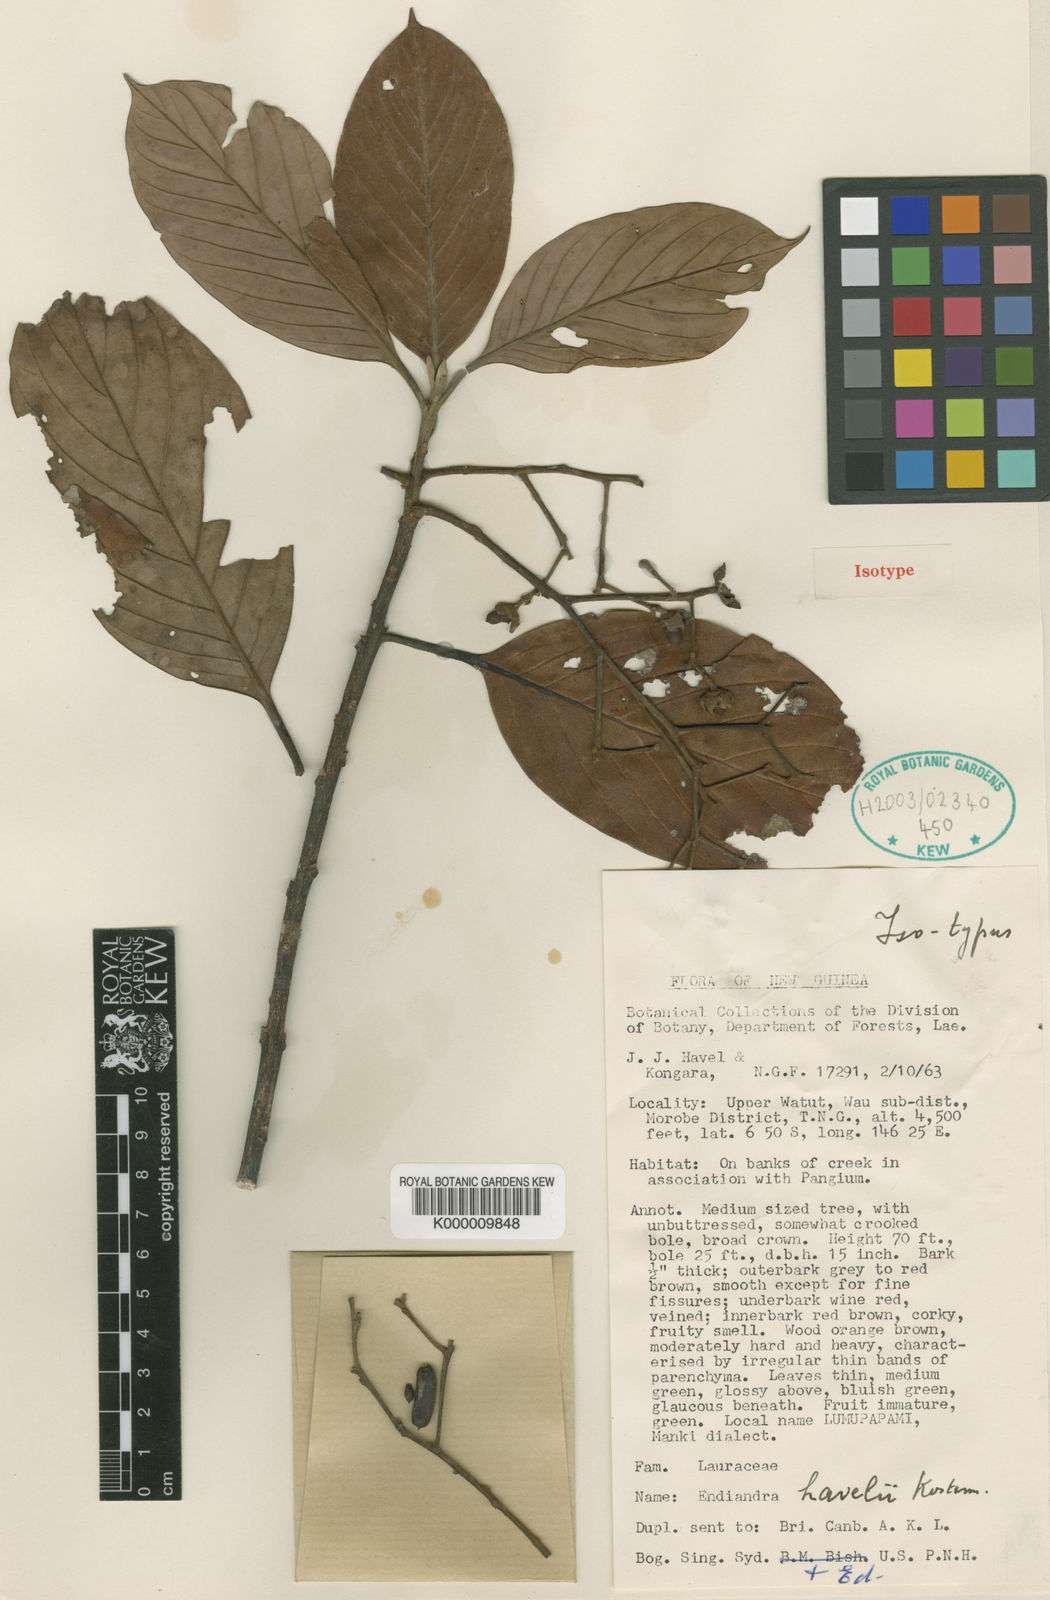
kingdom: Plantae
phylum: Tracheophyta
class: Magnoliopsida
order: Laurales
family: Lauraceae
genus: Endiandra
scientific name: Endiandra havelii
